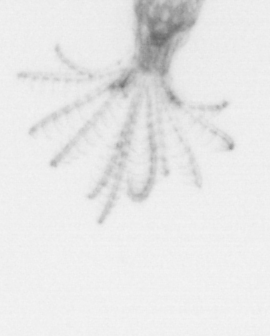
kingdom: Chromista
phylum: Ochrophyta
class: Bacillariophyceae
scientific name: Bacillariophyceae
